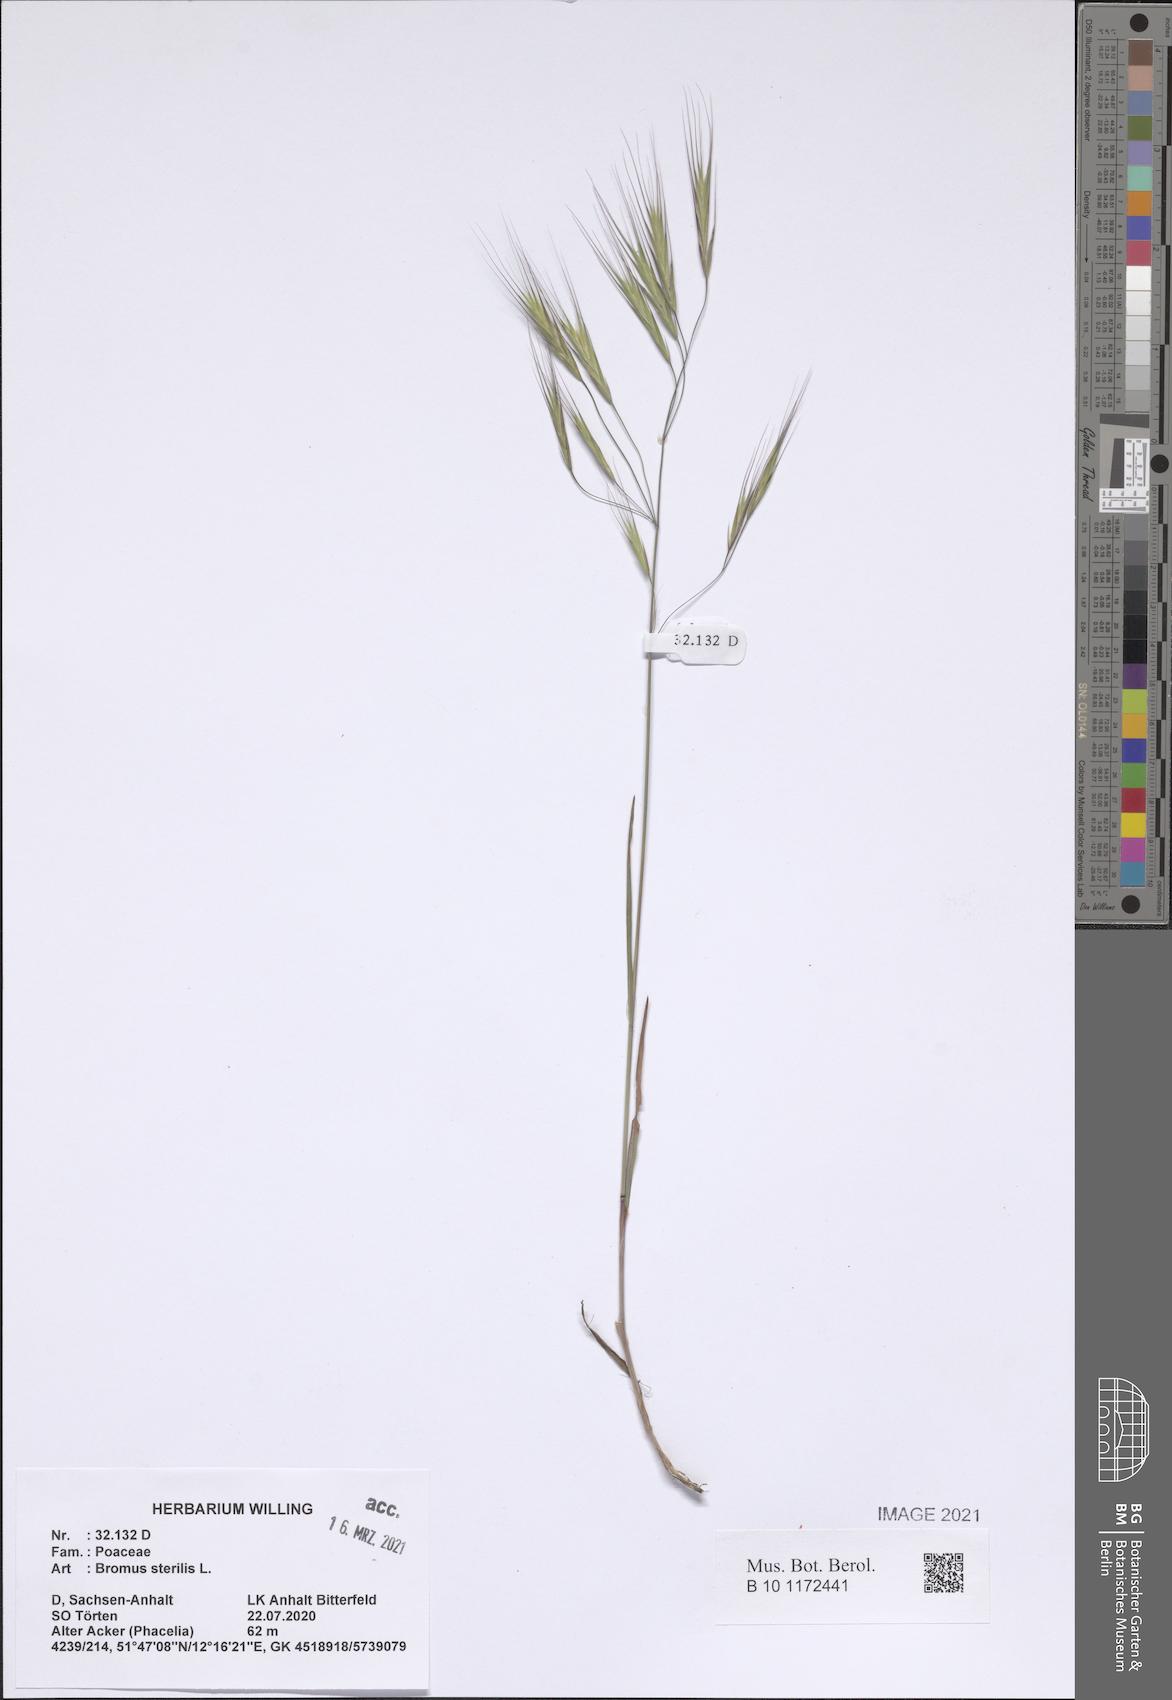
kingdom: Plantae
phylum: Tracheophyta
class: Liliopsida
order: Poales
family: Poaceae
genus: Bromus
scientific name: Bromus sterilis
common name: Poverty brome
